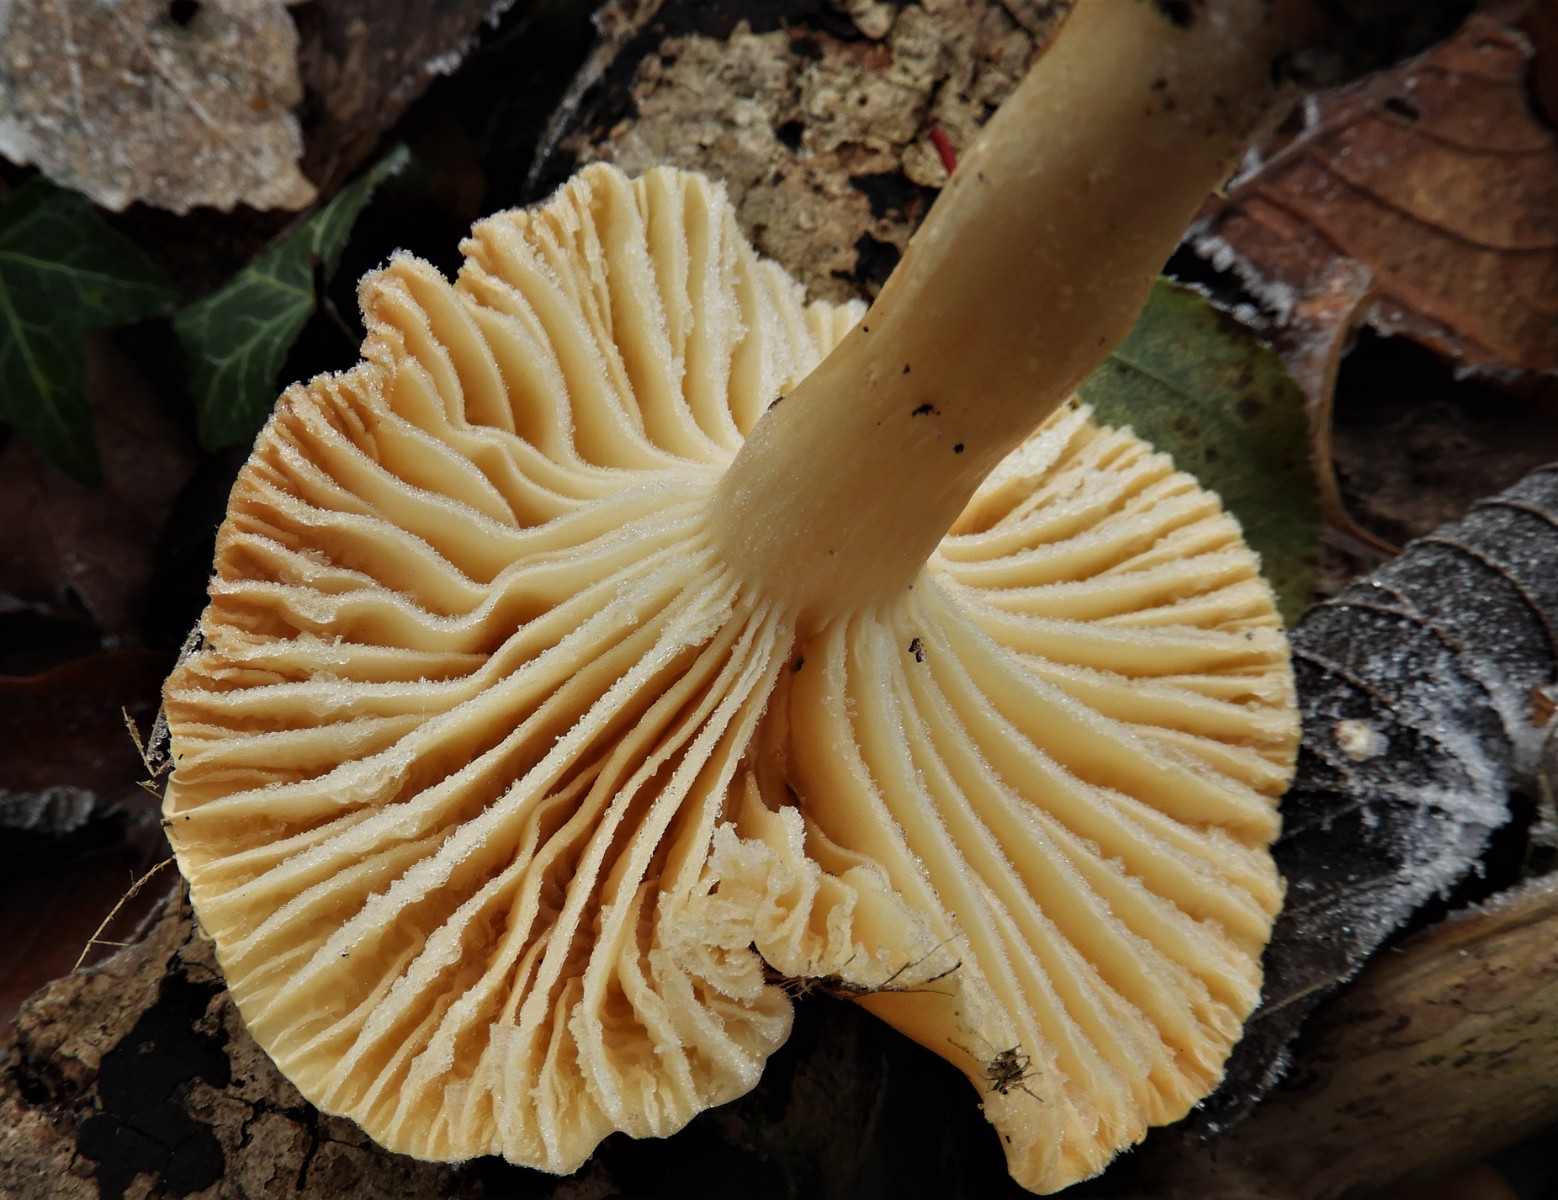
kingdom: Fungi
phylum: Basidiomycota
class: Agaricomycetes
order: Agaricales
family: Hygrophoraceae
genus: Cuphophyllus
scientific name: Cuphophyllus pratensis
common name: eng-vokshat
